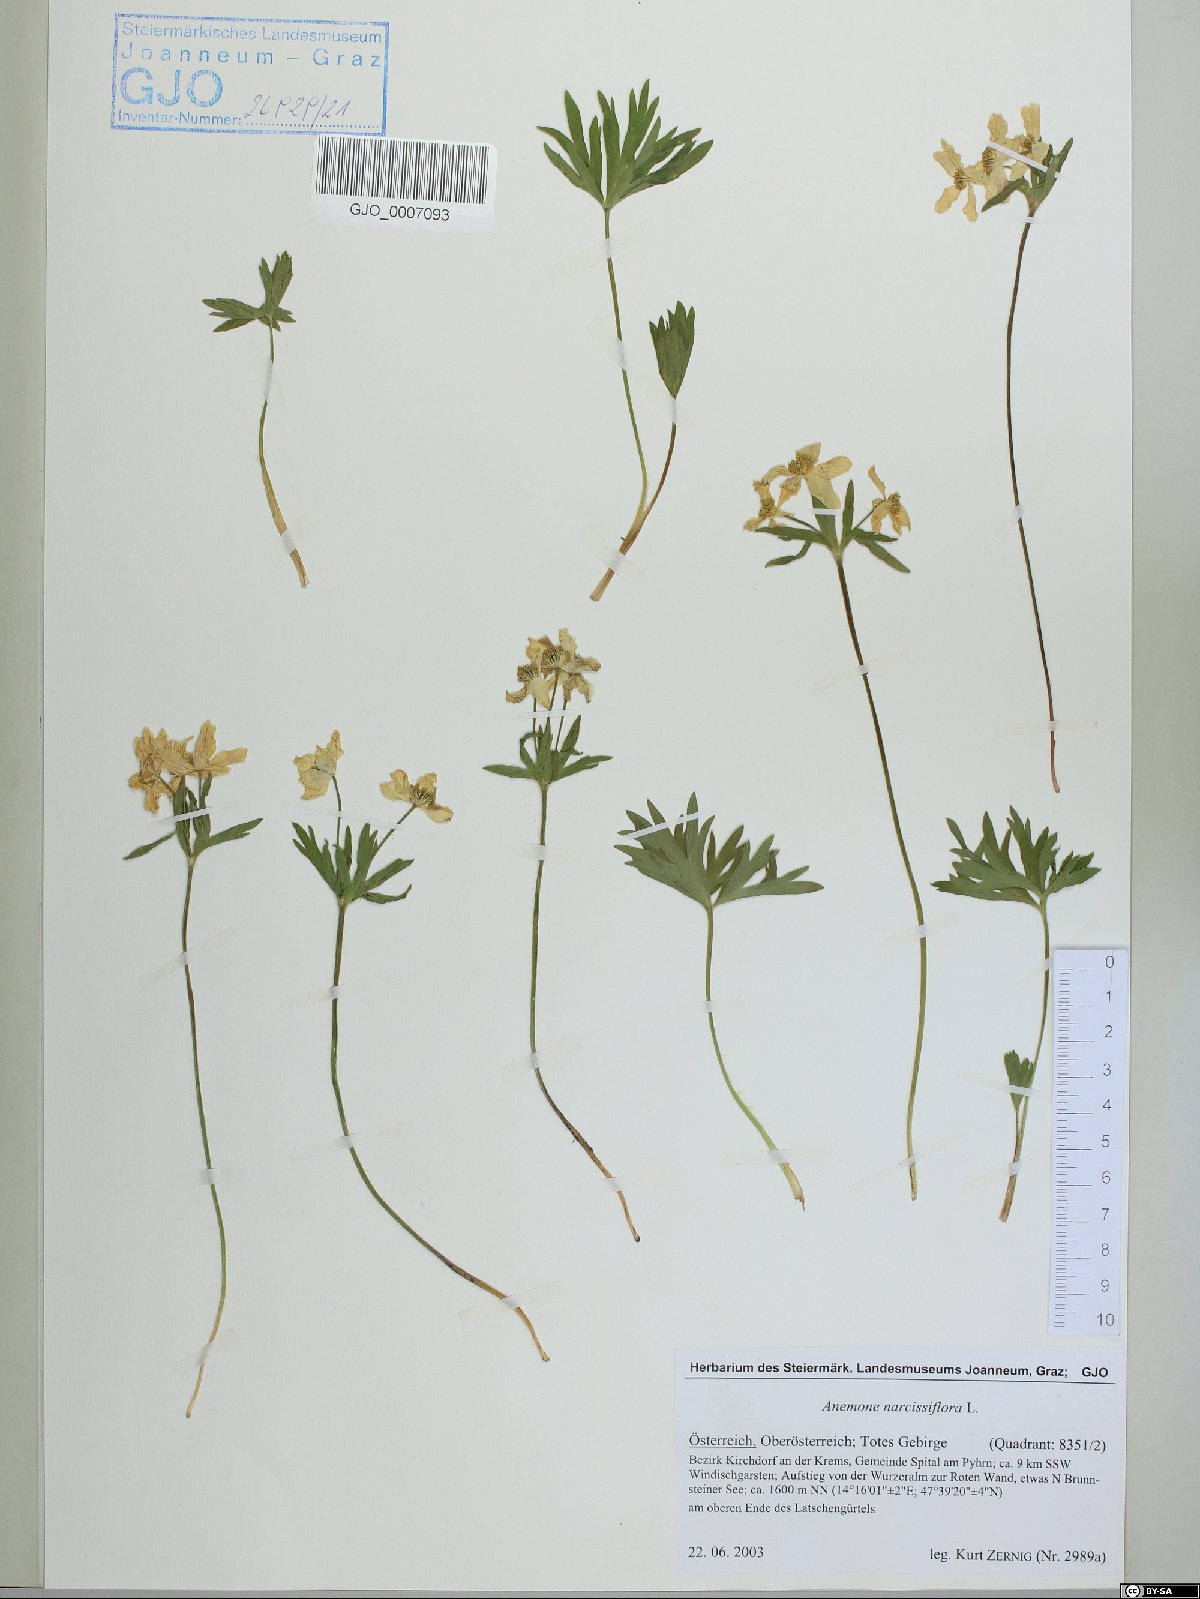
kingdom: Plantae
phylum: Tracheophyta
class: Magnoliopsida
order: Ranunculales
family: Ranunculaceae
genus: Anemonastrum
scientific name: Anemonastrum narcissiflorum
